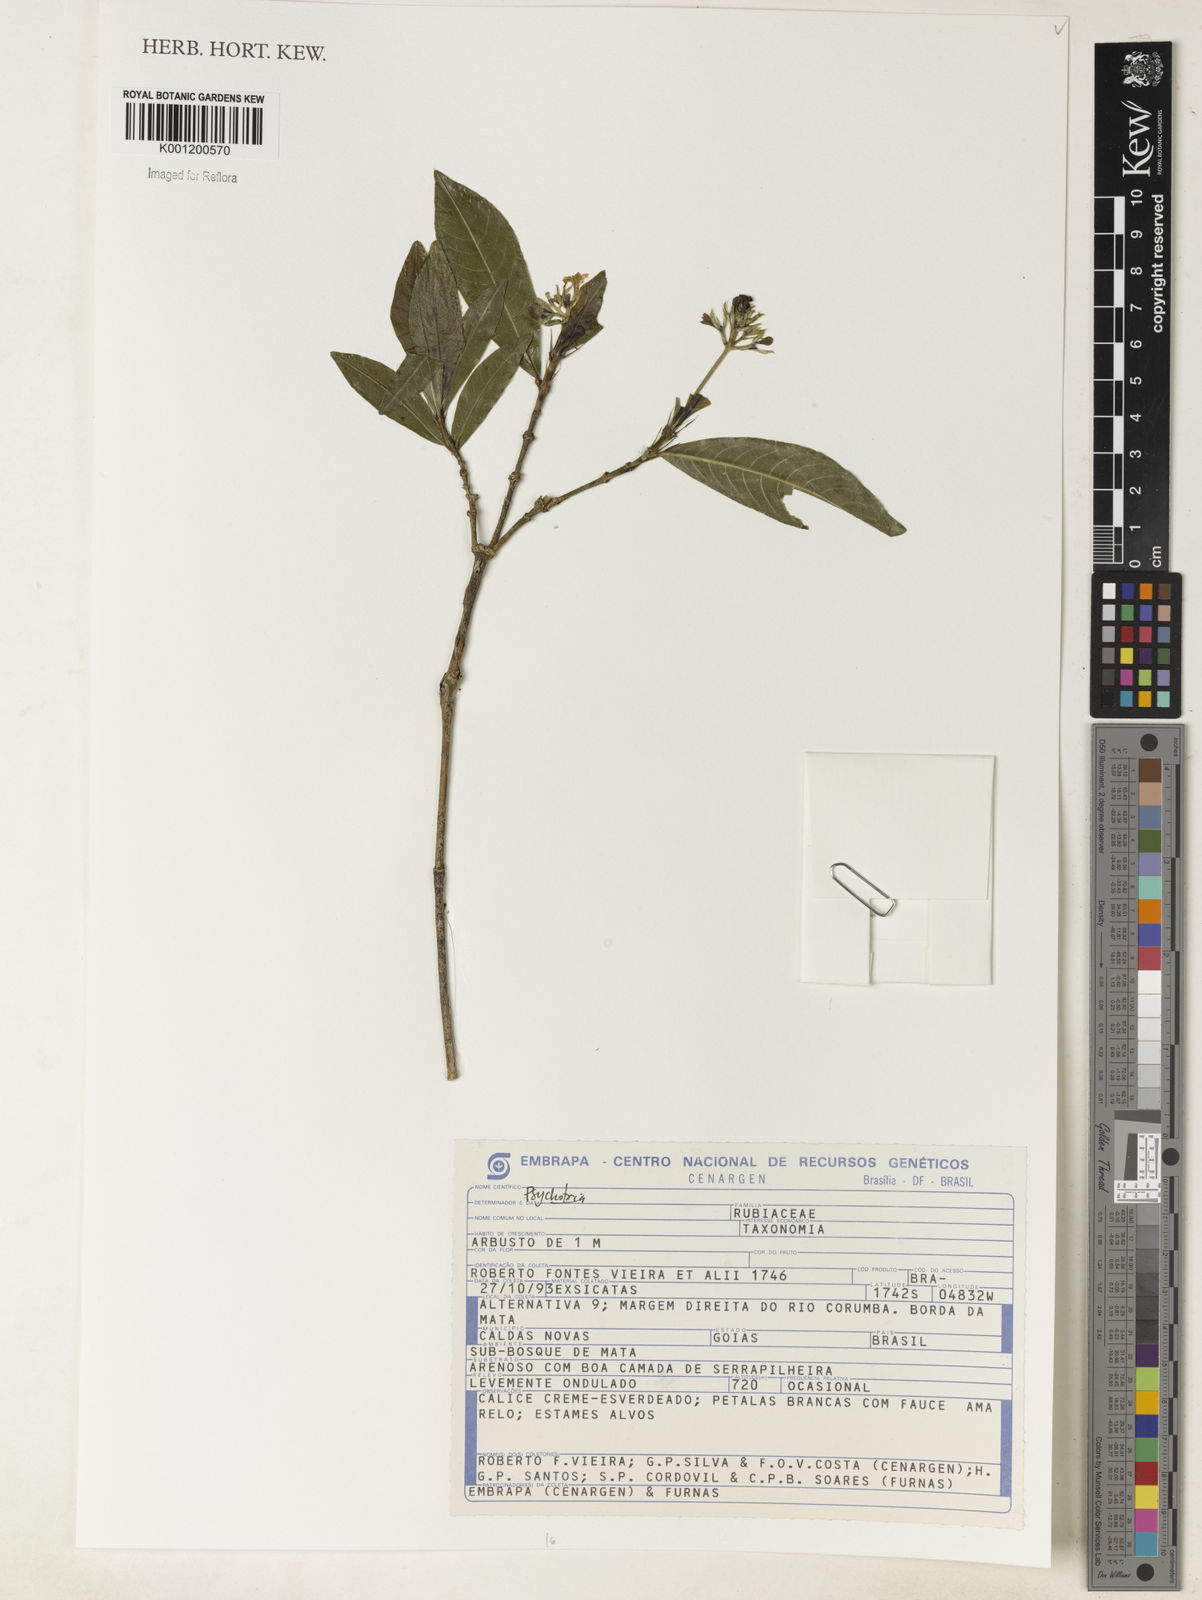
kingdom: Plantae
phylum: Tracheophyta
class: Magnoliopsida
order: Gentianales
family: Rubiaceae
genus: Psychotria
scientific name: Psychotria
